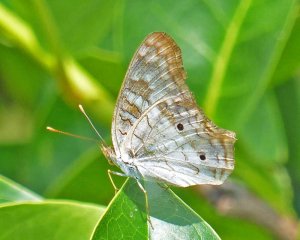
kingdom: Animalia
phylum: Arthropoda
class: Insecta
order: Lepidoptera
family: Nymphalidae
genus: Anartia
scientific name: Anartia jatrophae
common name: White Peacock
